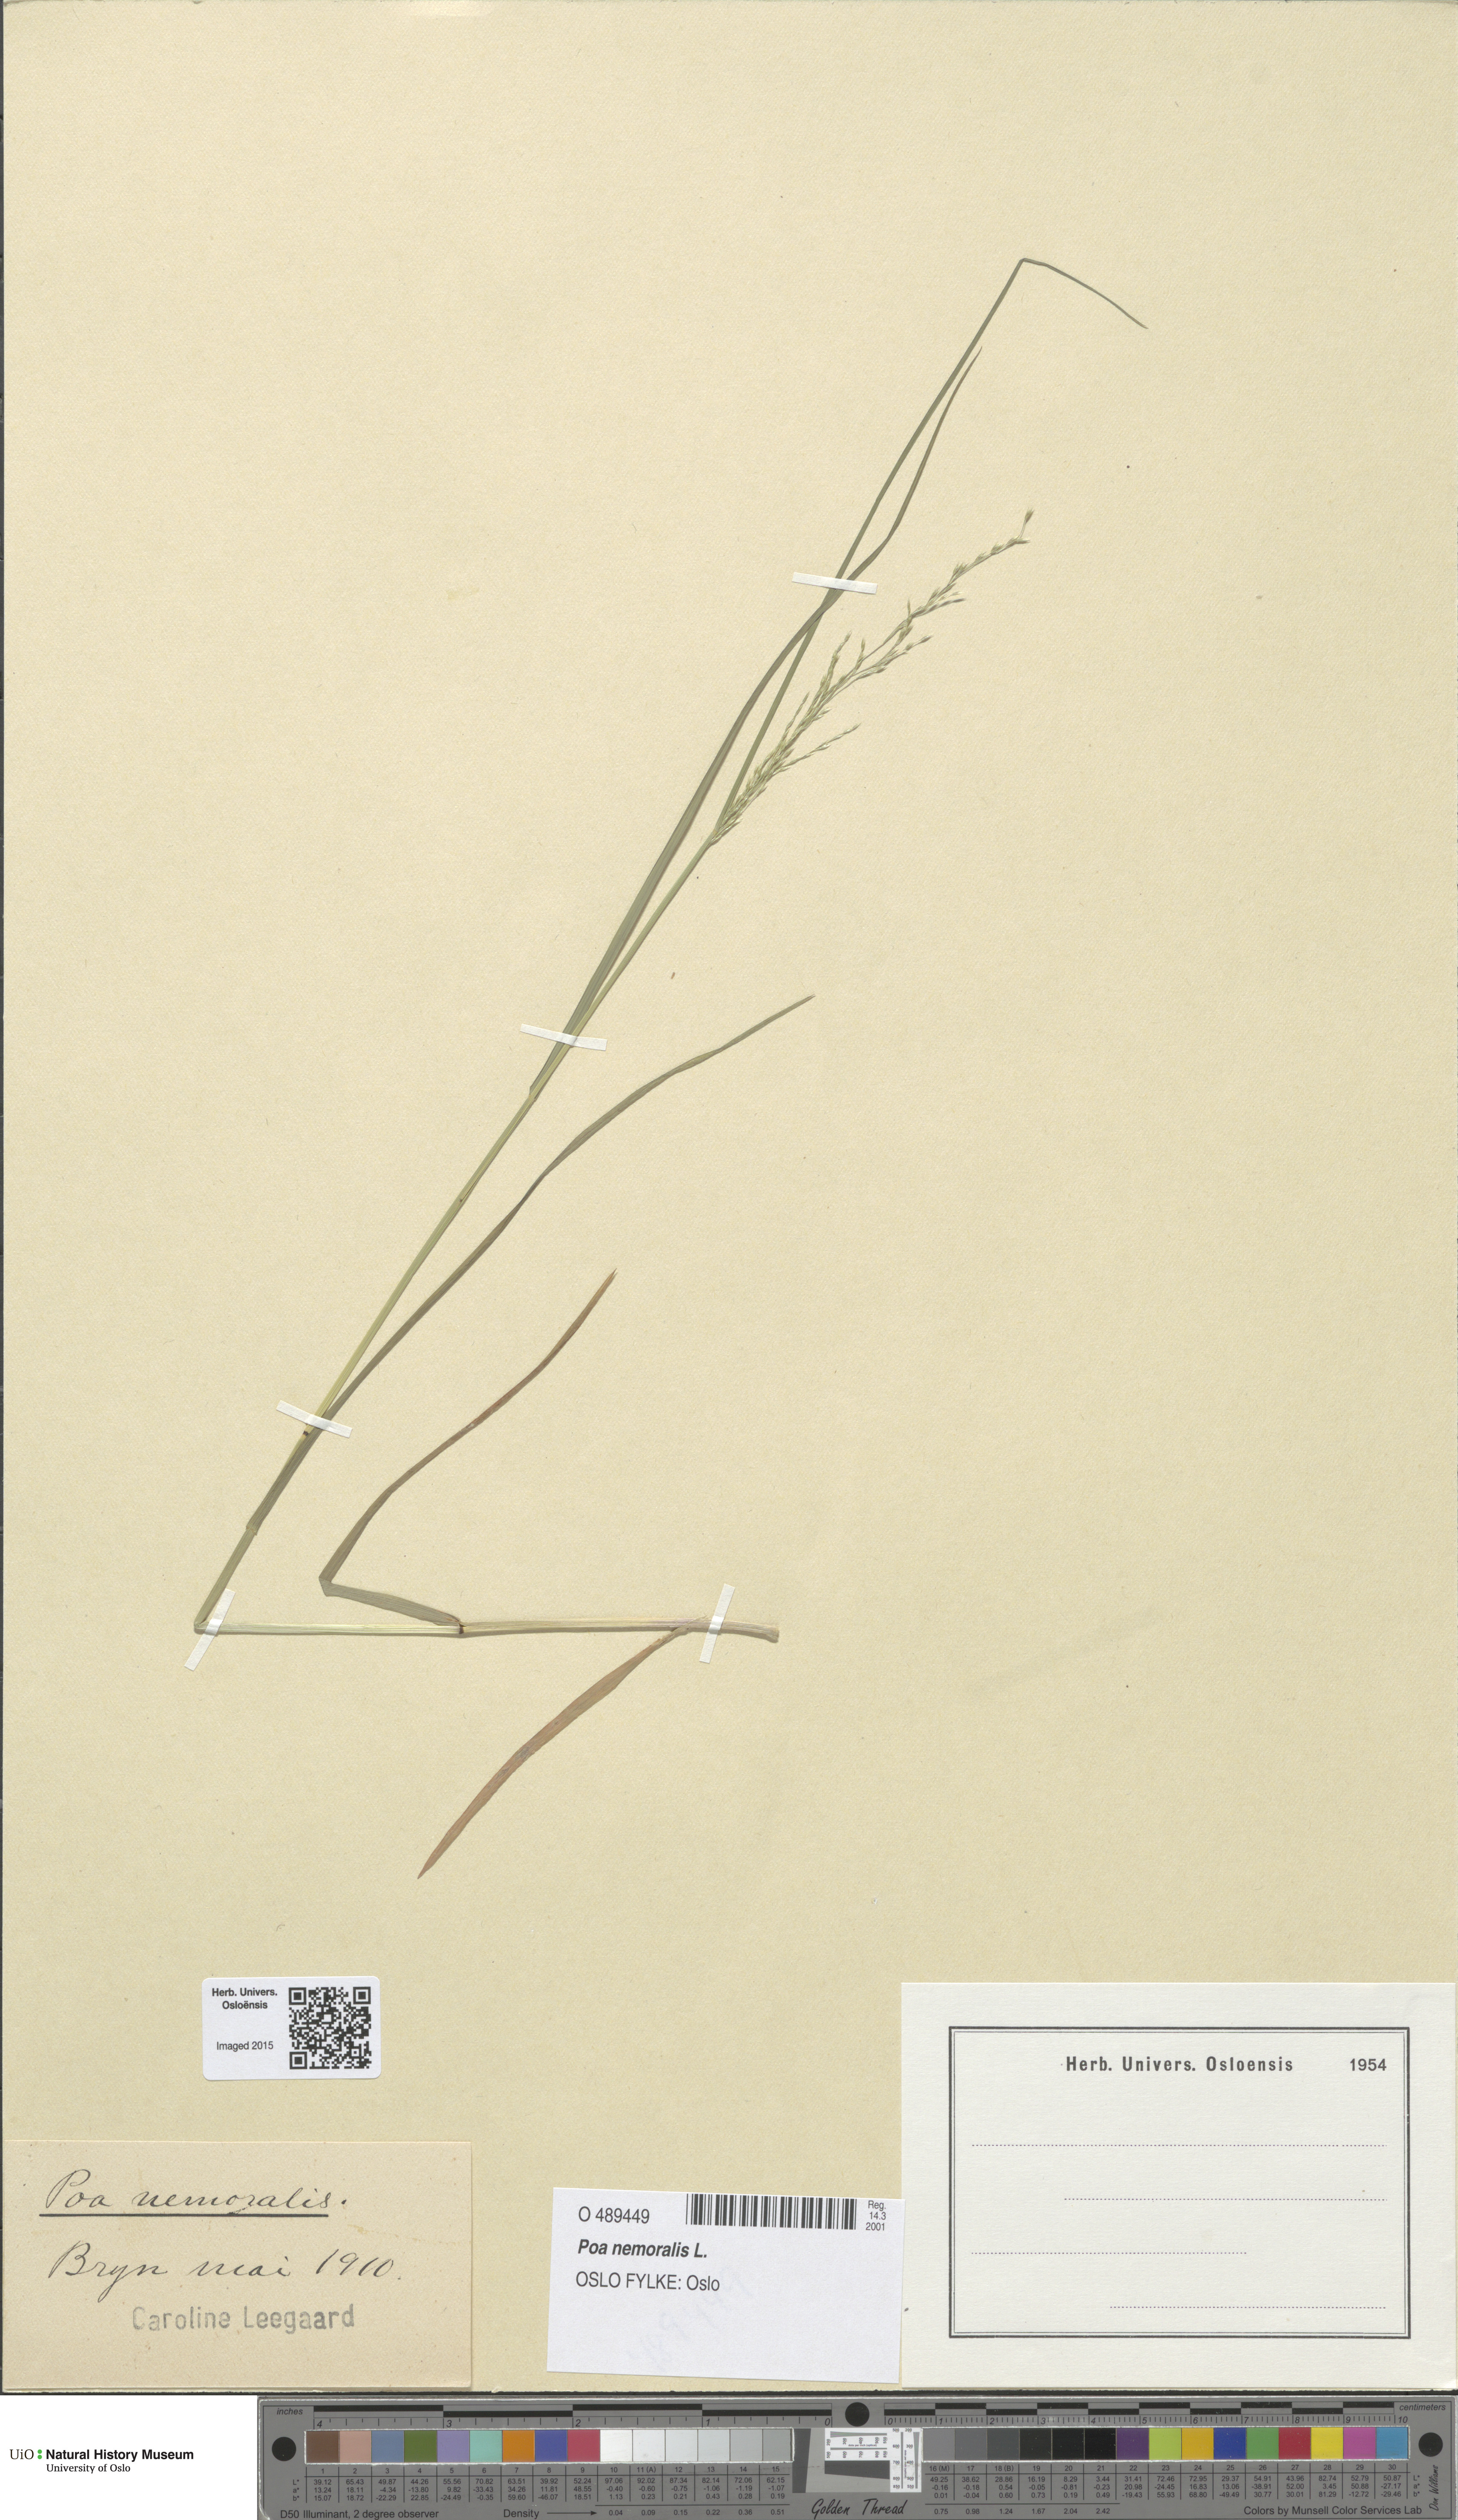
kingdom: Plantae
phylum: Tracheophyta
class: Liliopsida
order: Poales
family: Poaceae
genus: Poa
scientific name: Poa nemoralis
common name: Wood bluegrass
